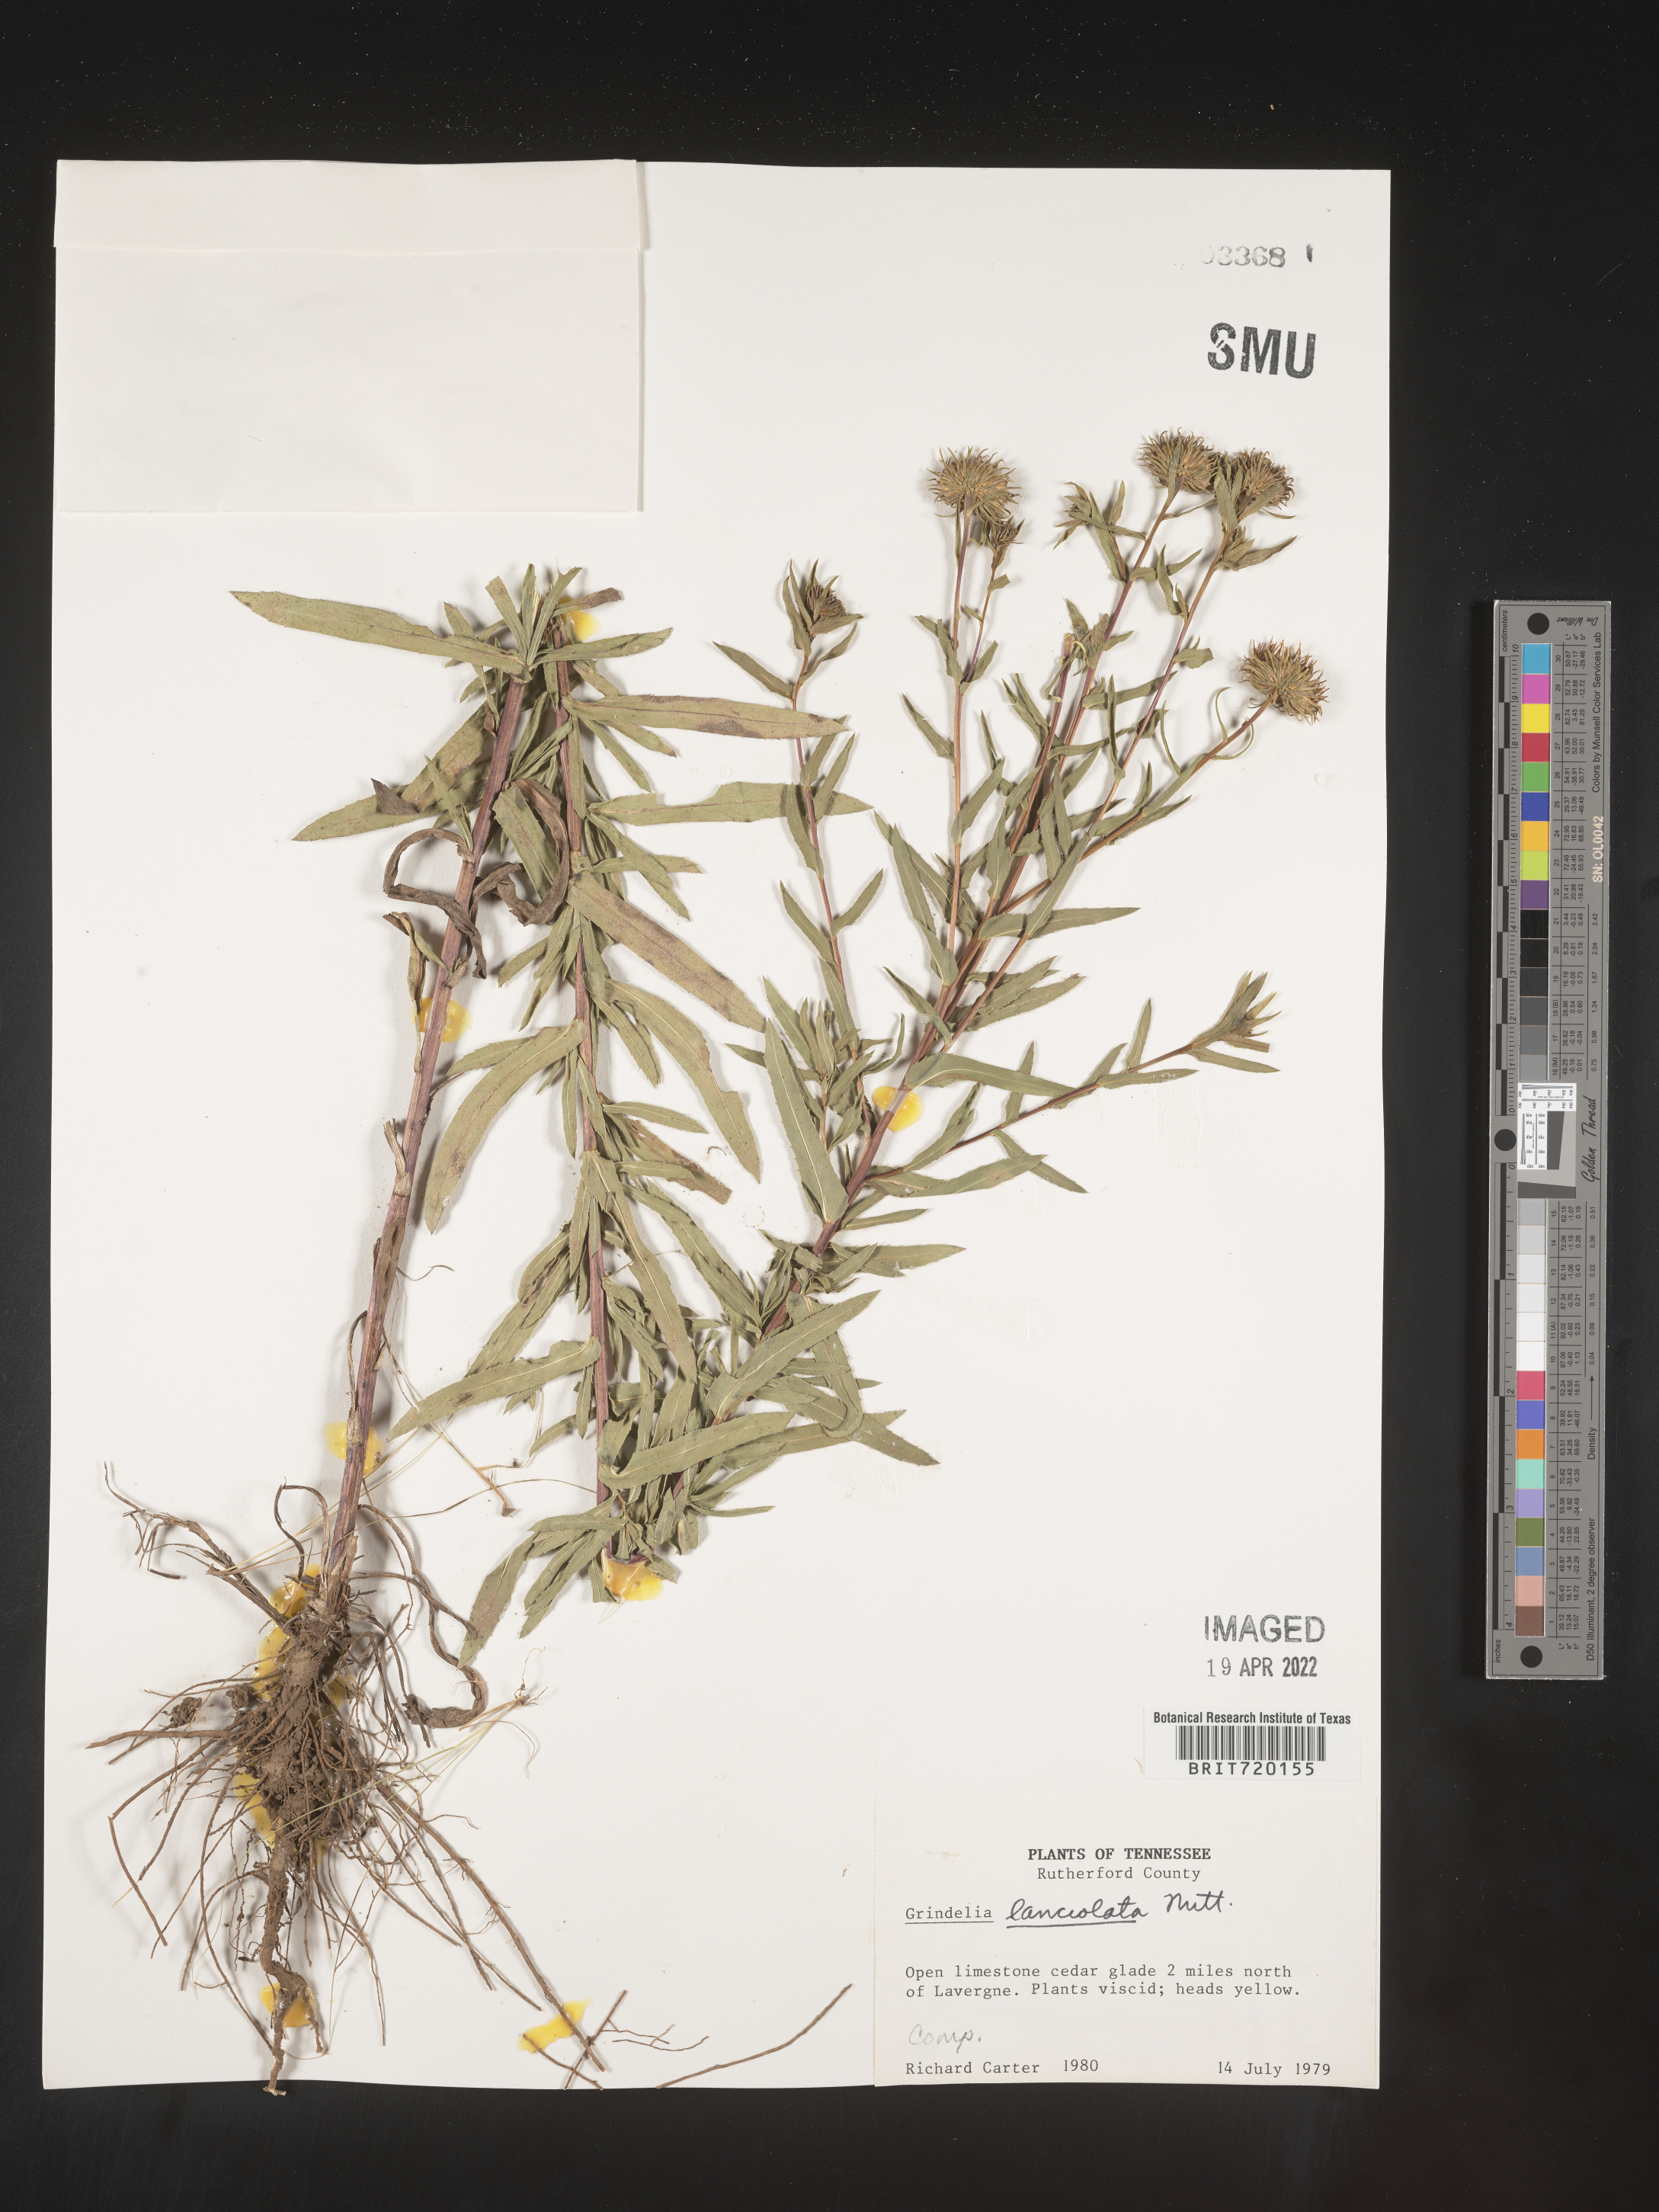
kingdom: Plantae
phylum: Tracheophyta
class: Magnoliopsida
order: Asterales
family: Asteraceae
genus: Grindelia
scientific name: Grindelia lanceolata
